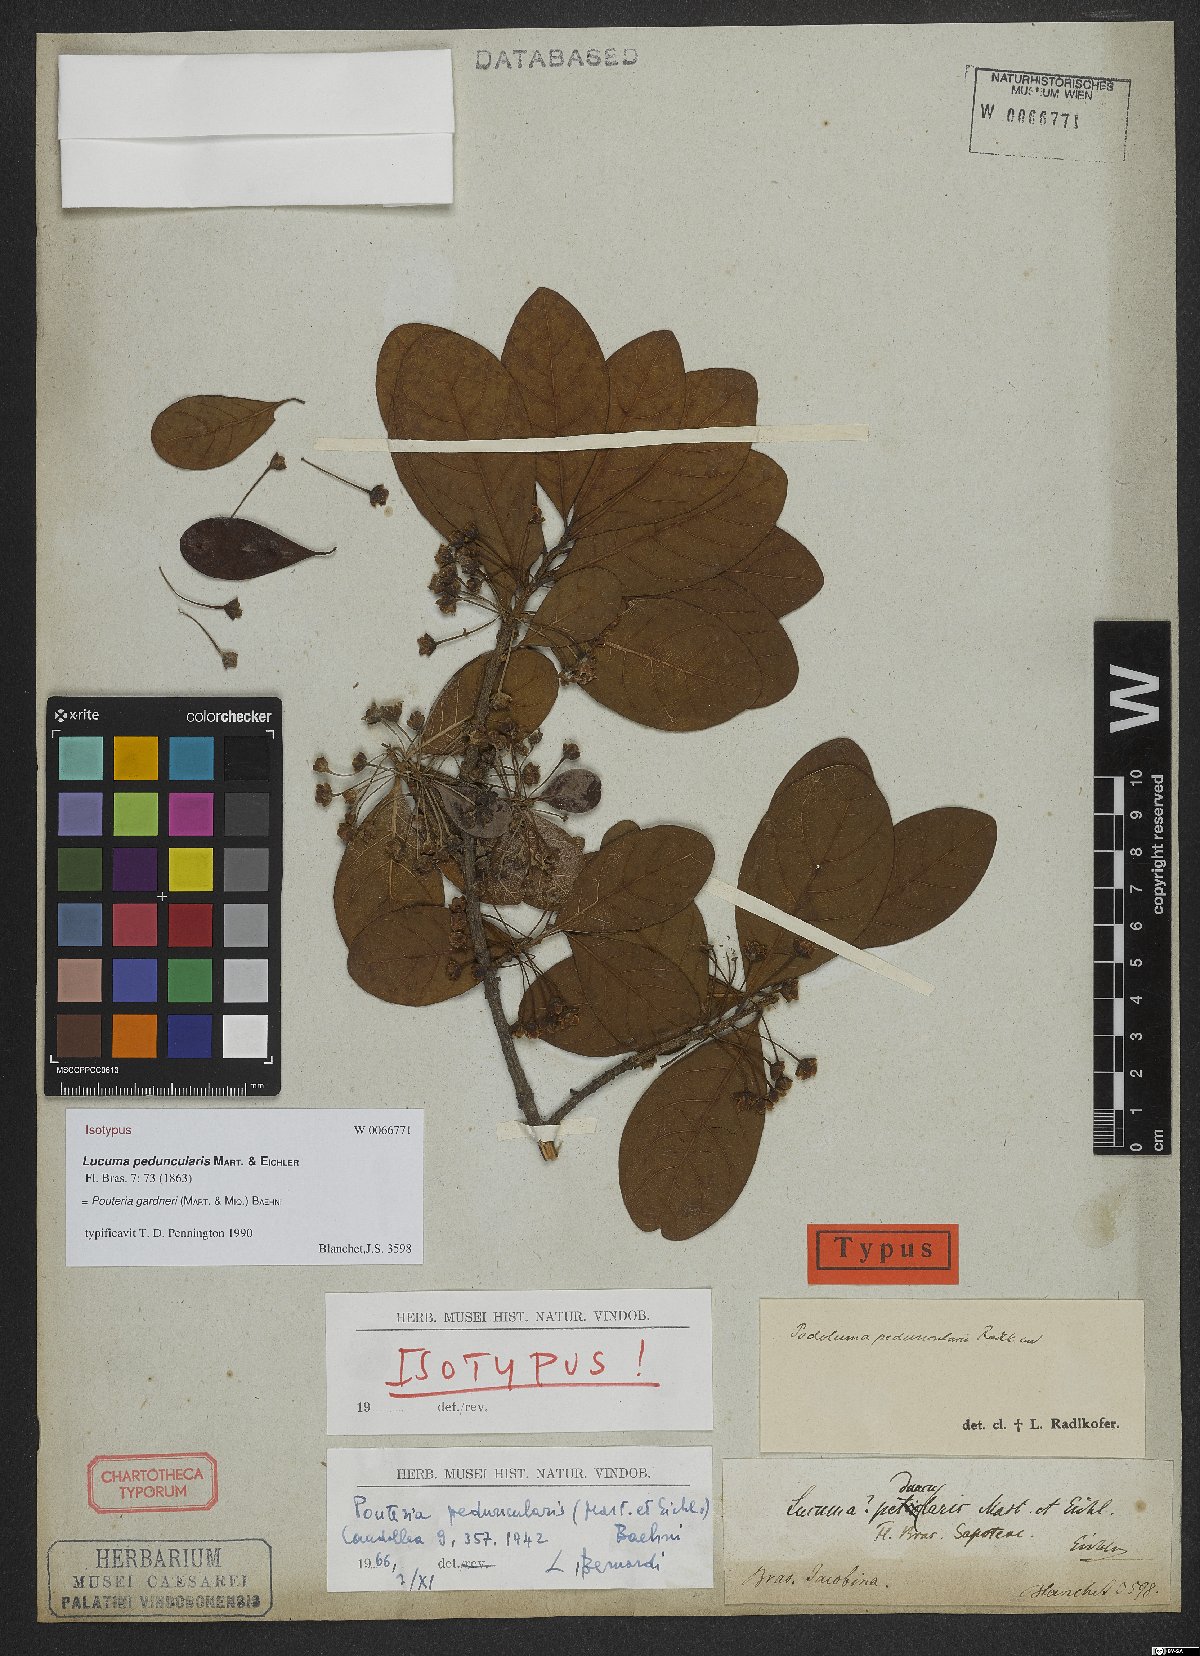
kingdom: Plantae
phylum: Tracheophyta
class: Magnoliopsida
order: Ericales
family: Sapotaceae
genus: Pouteria
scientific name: Pouteria gardneri
